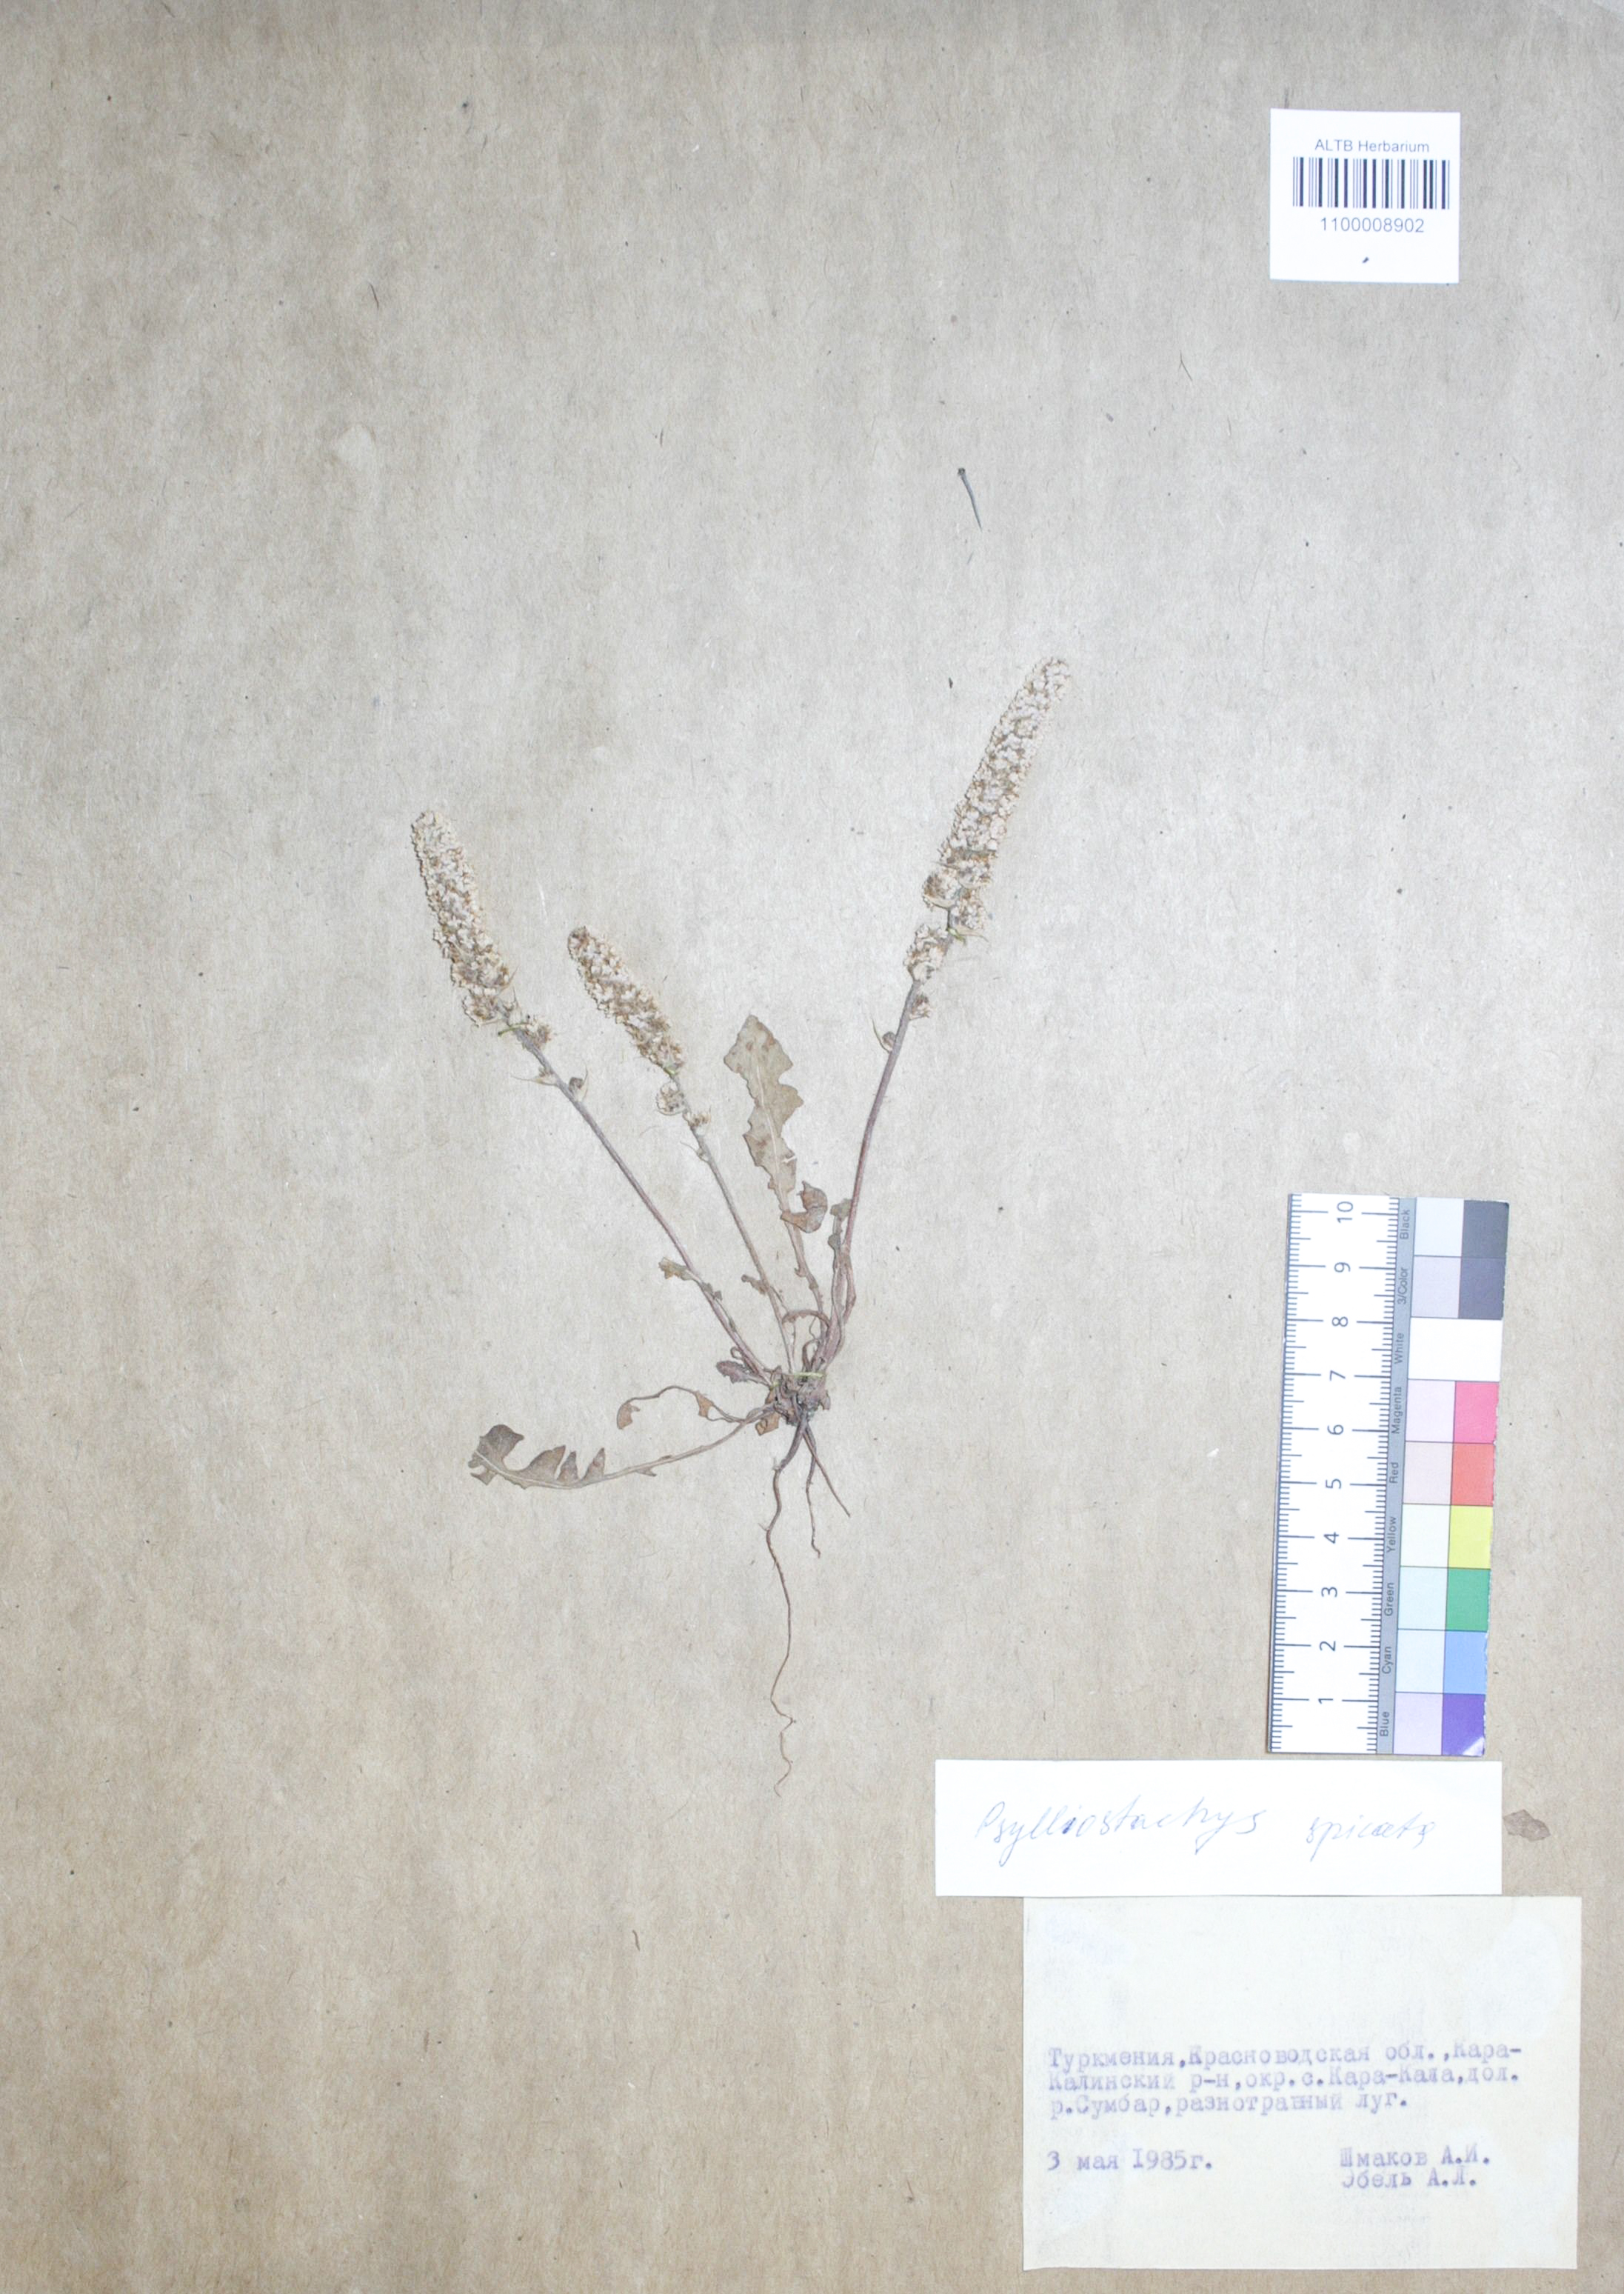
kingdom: Plantae
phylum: Tracheophyta
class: Magnoliopsida
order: Caryophyllales
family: Plumbaginaceae
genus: Psylliostachys
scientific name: Psylliostachys spicatus
